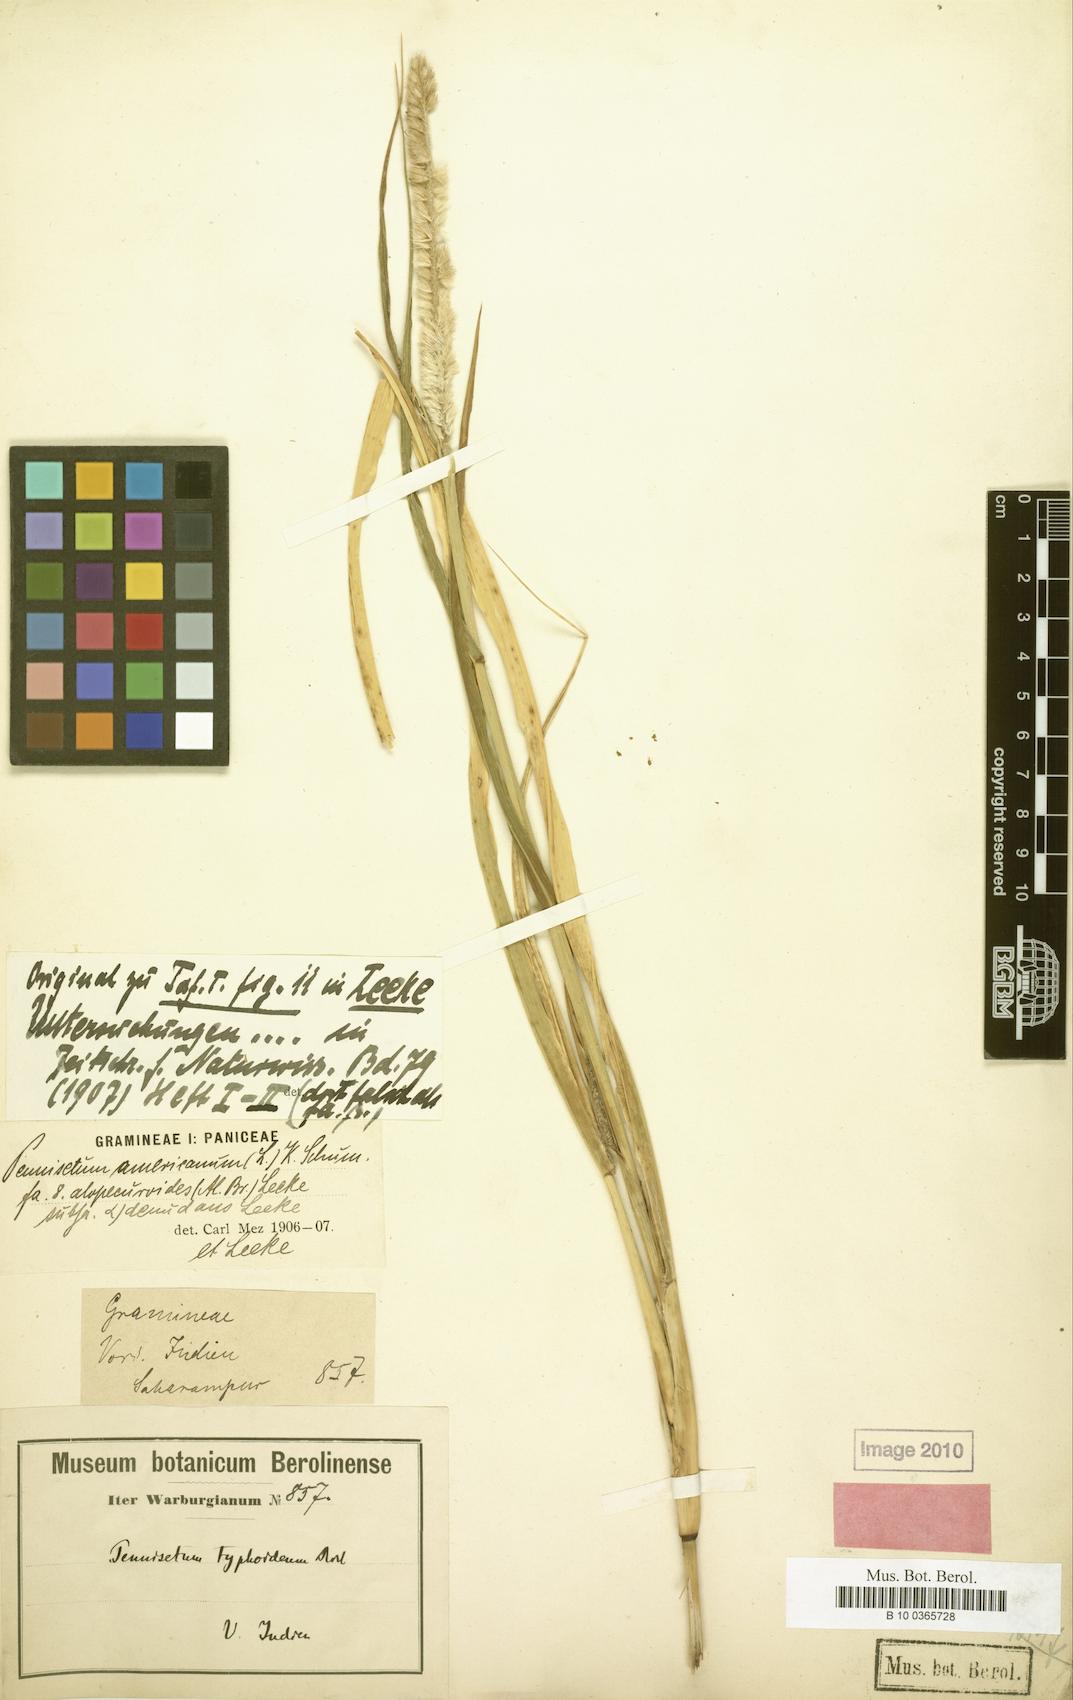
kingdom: Plantae
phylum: Tracheophyta
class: Liliopsida
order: Poales
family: Poaceae
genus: Cenchrus
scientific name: Cenchrus americanus
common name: Pearl millet
